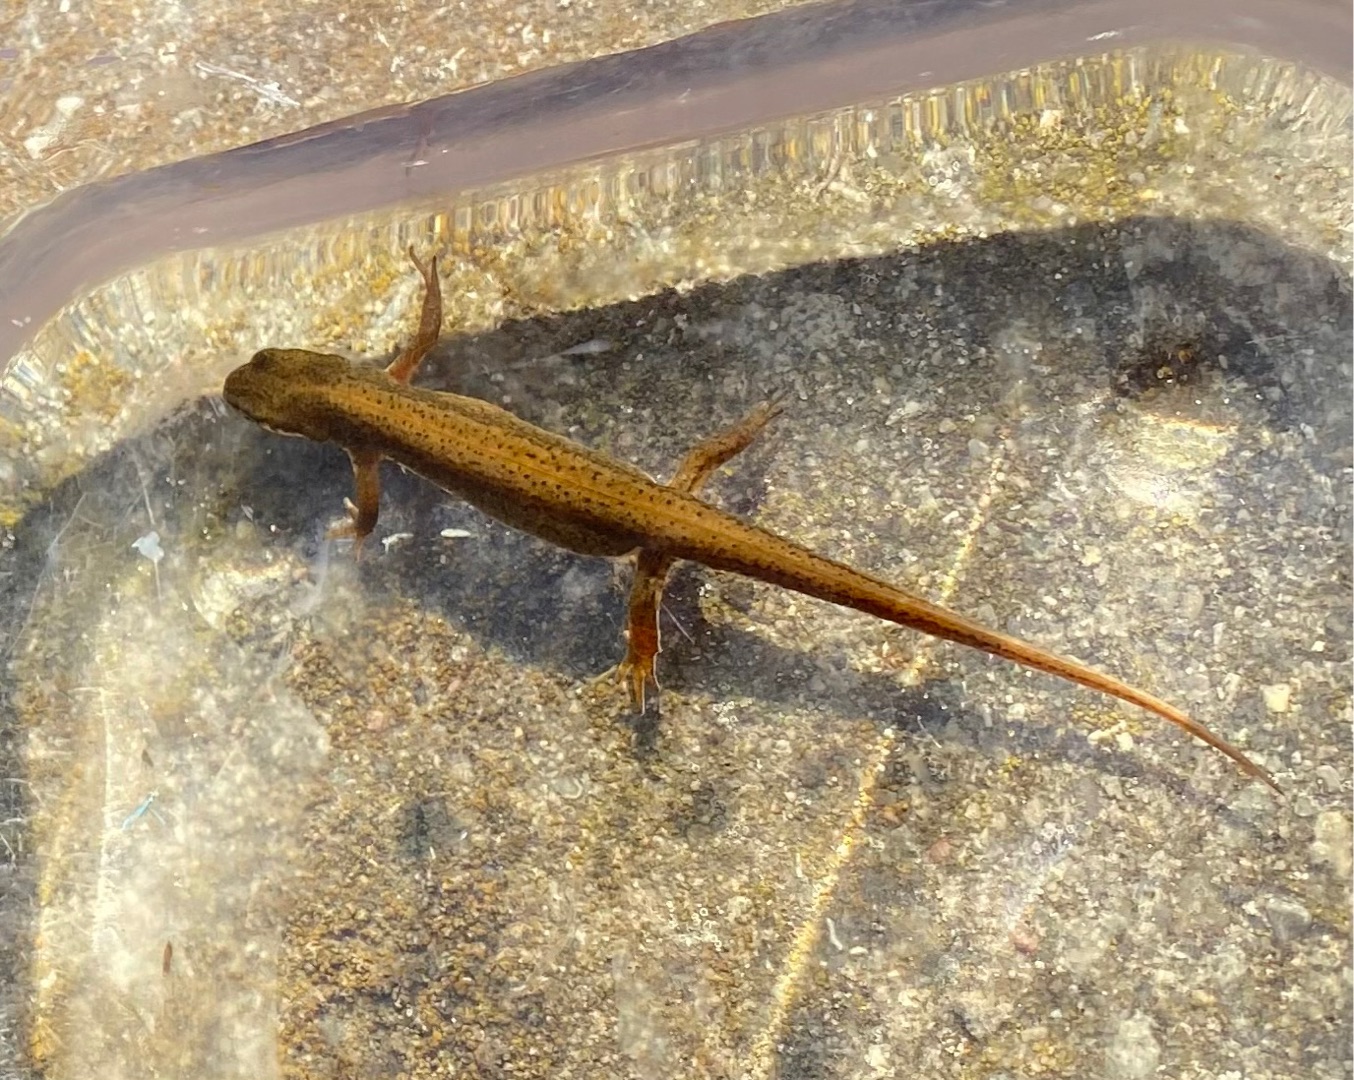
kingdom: Animalia
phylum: Chordata
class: Amphibia
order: Caudata
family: Salamandridae
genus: Lissotriton
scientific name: Lissotriton vulgaris
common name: Lille vandsalamander
